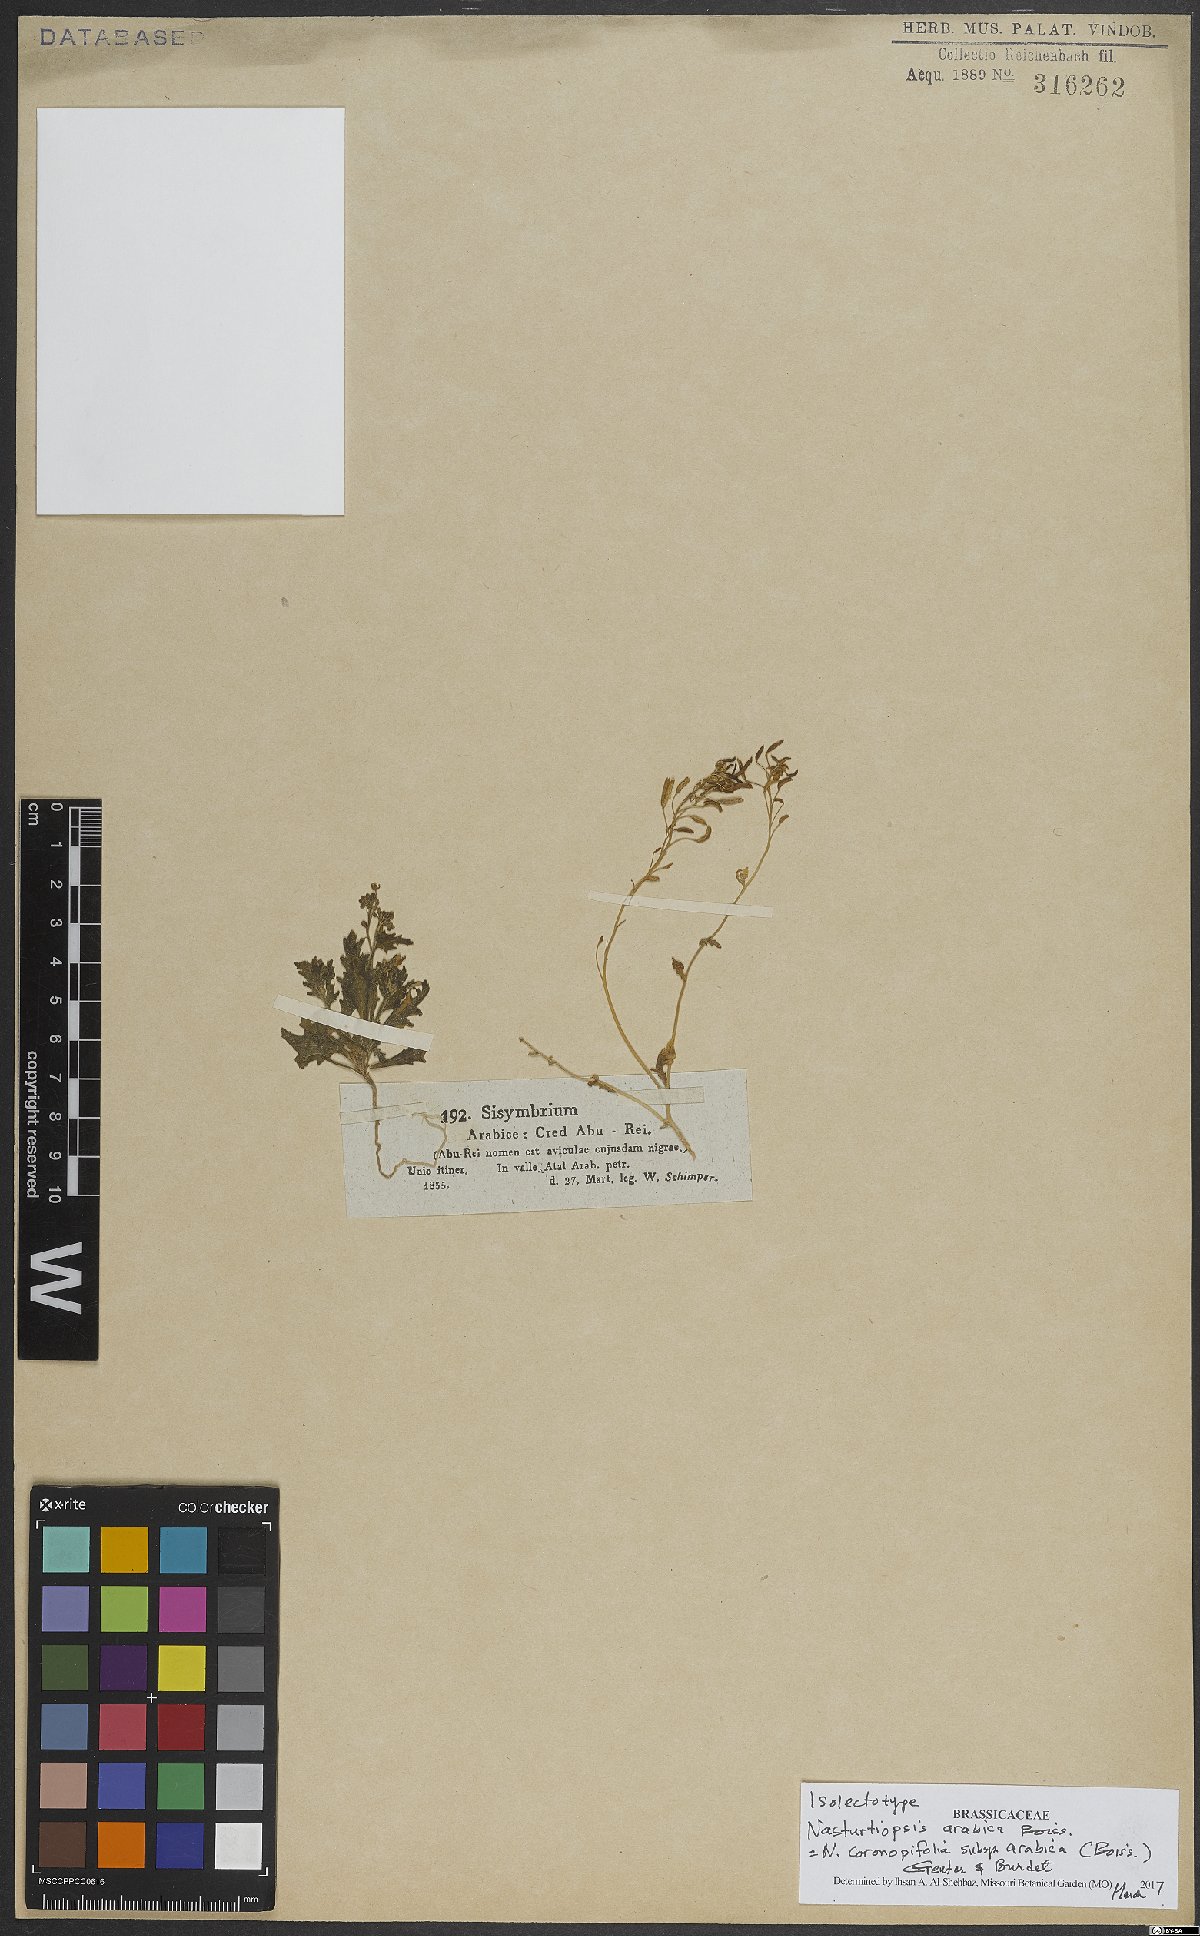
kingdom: Plantae
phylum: Tracheophyta
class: Magnoliopsida
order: Brassicales
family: Brassicaceae
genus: Nasturtiopsis
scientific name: Nasturtiopsis coronopifolia
